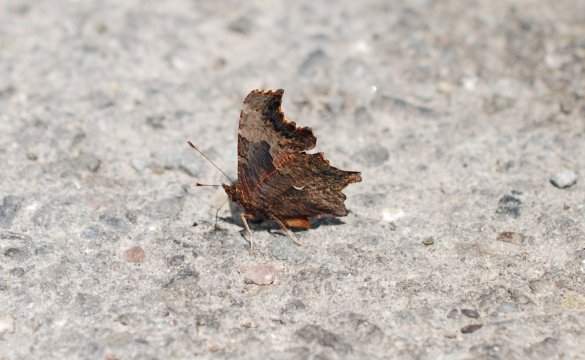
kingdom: Animalia
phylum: Arthropoda
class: Insecta
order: Lepidoptera
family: Nymphalidae
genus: Polygonia
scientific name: Polygonia progne
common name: Gray Comma
